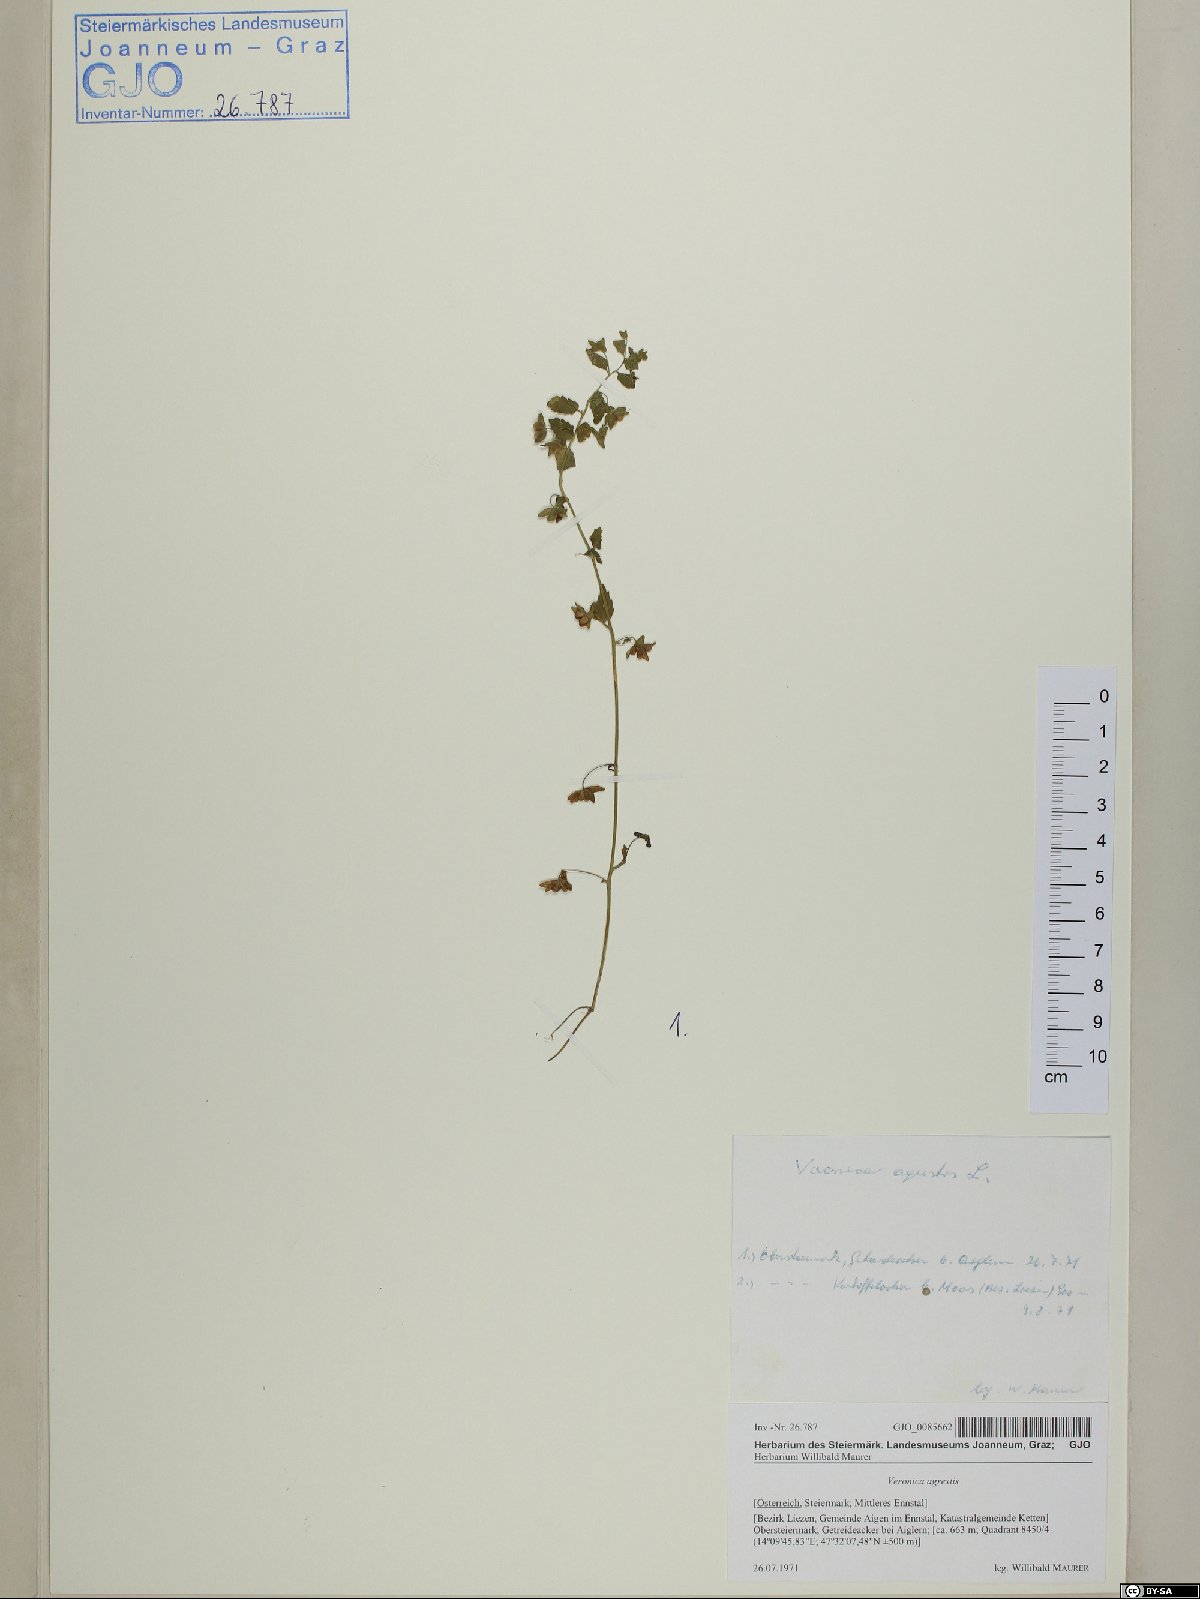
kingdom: Plantae
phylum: Tracheophyta
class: Magnoliopsida
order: Lamiales
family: Plantaginaceae
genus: Veronica
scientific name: Veronica agrestis
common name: Green field-speedwell
